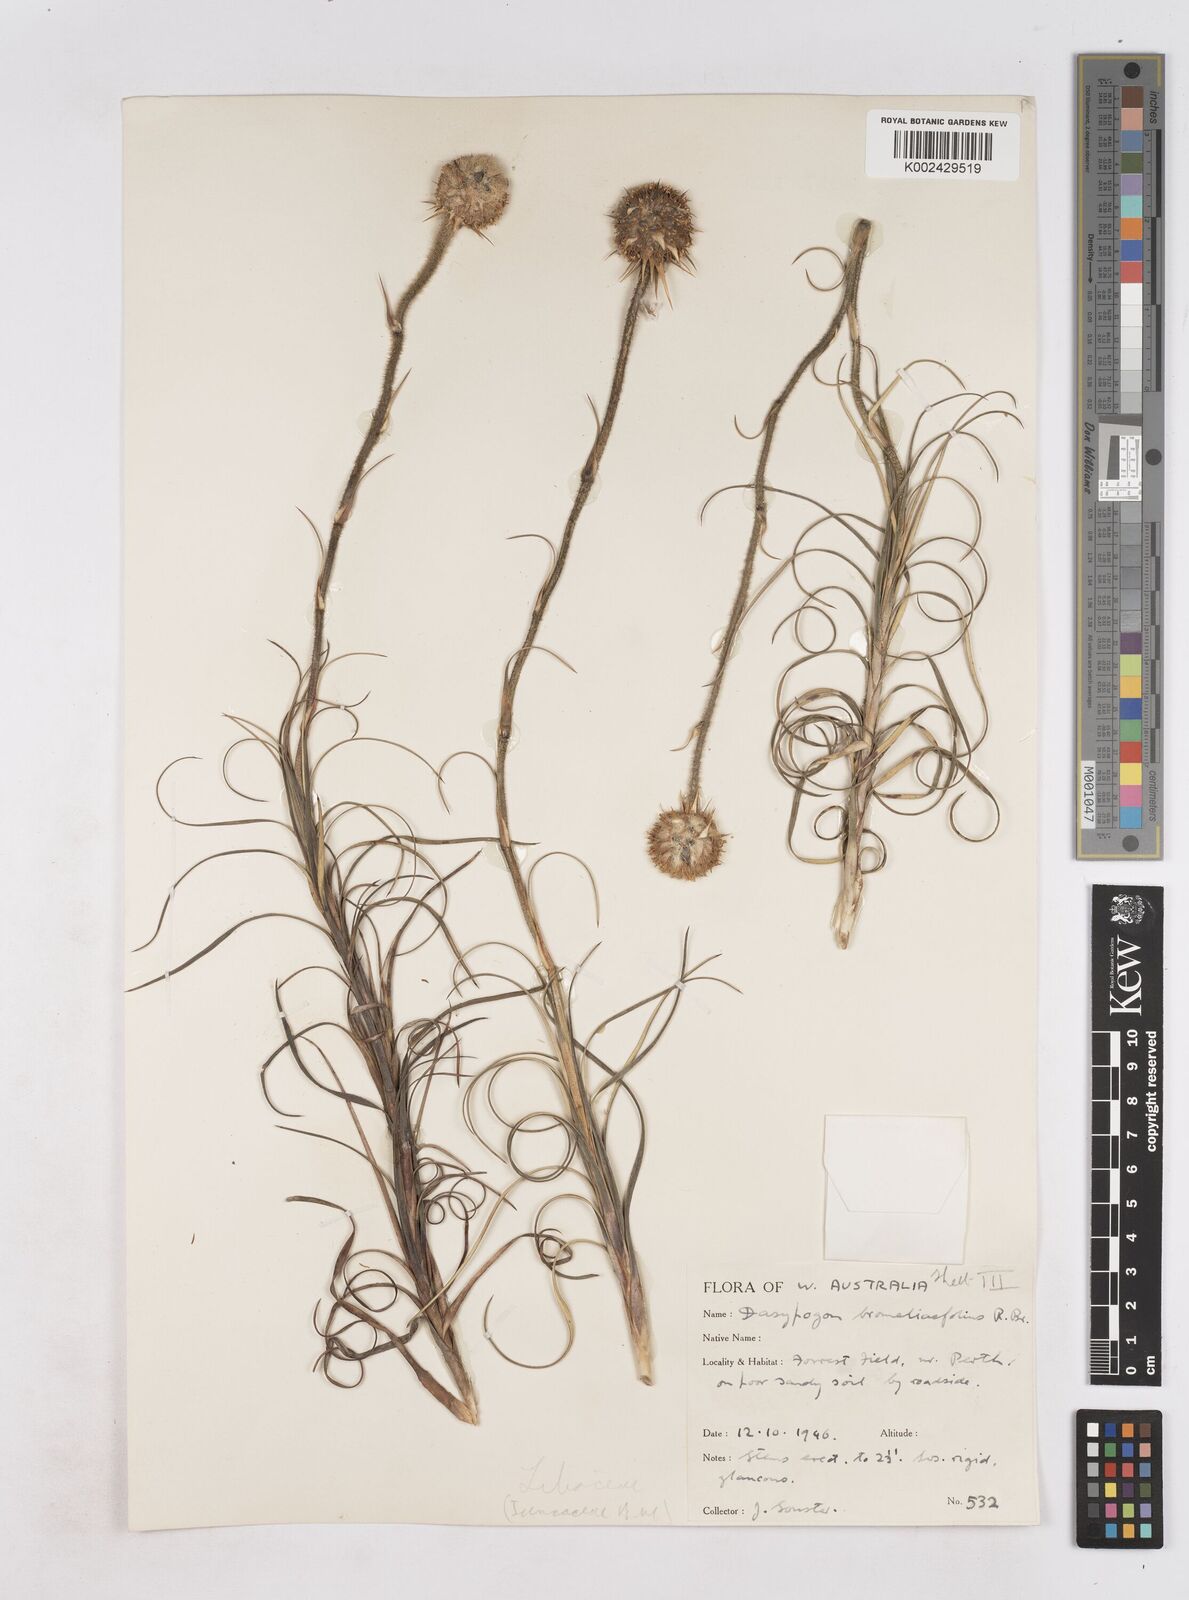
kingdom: Plantae
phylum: Tracheophyta
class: Liliopsida
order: Arecales
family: Dasypogonaceae
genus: Dasypogon
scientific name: Dasypogon bromeliifolius
